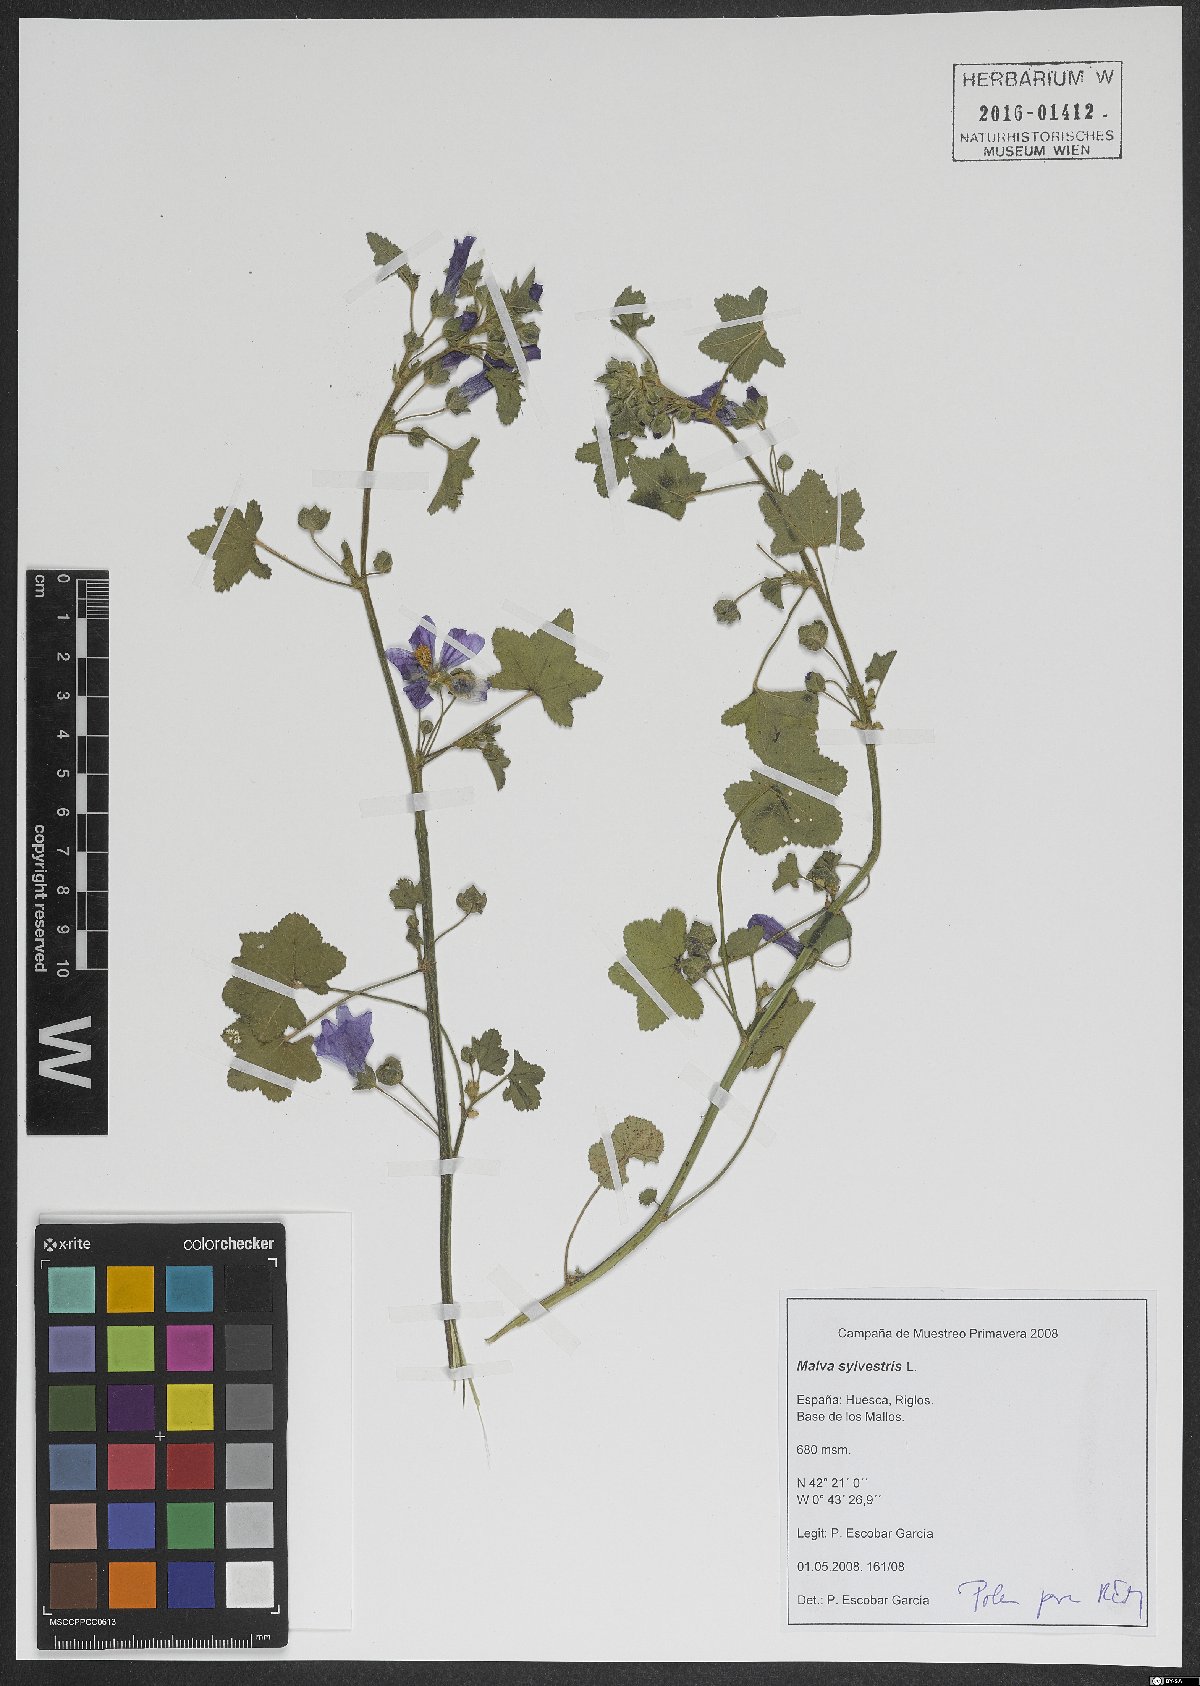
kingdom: Plantae
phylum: Tracheophyta
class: Magnoliopsida
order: Malvales
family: Malvaceae
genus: Malva
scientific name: Malva sylvestris
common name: Common mallow
